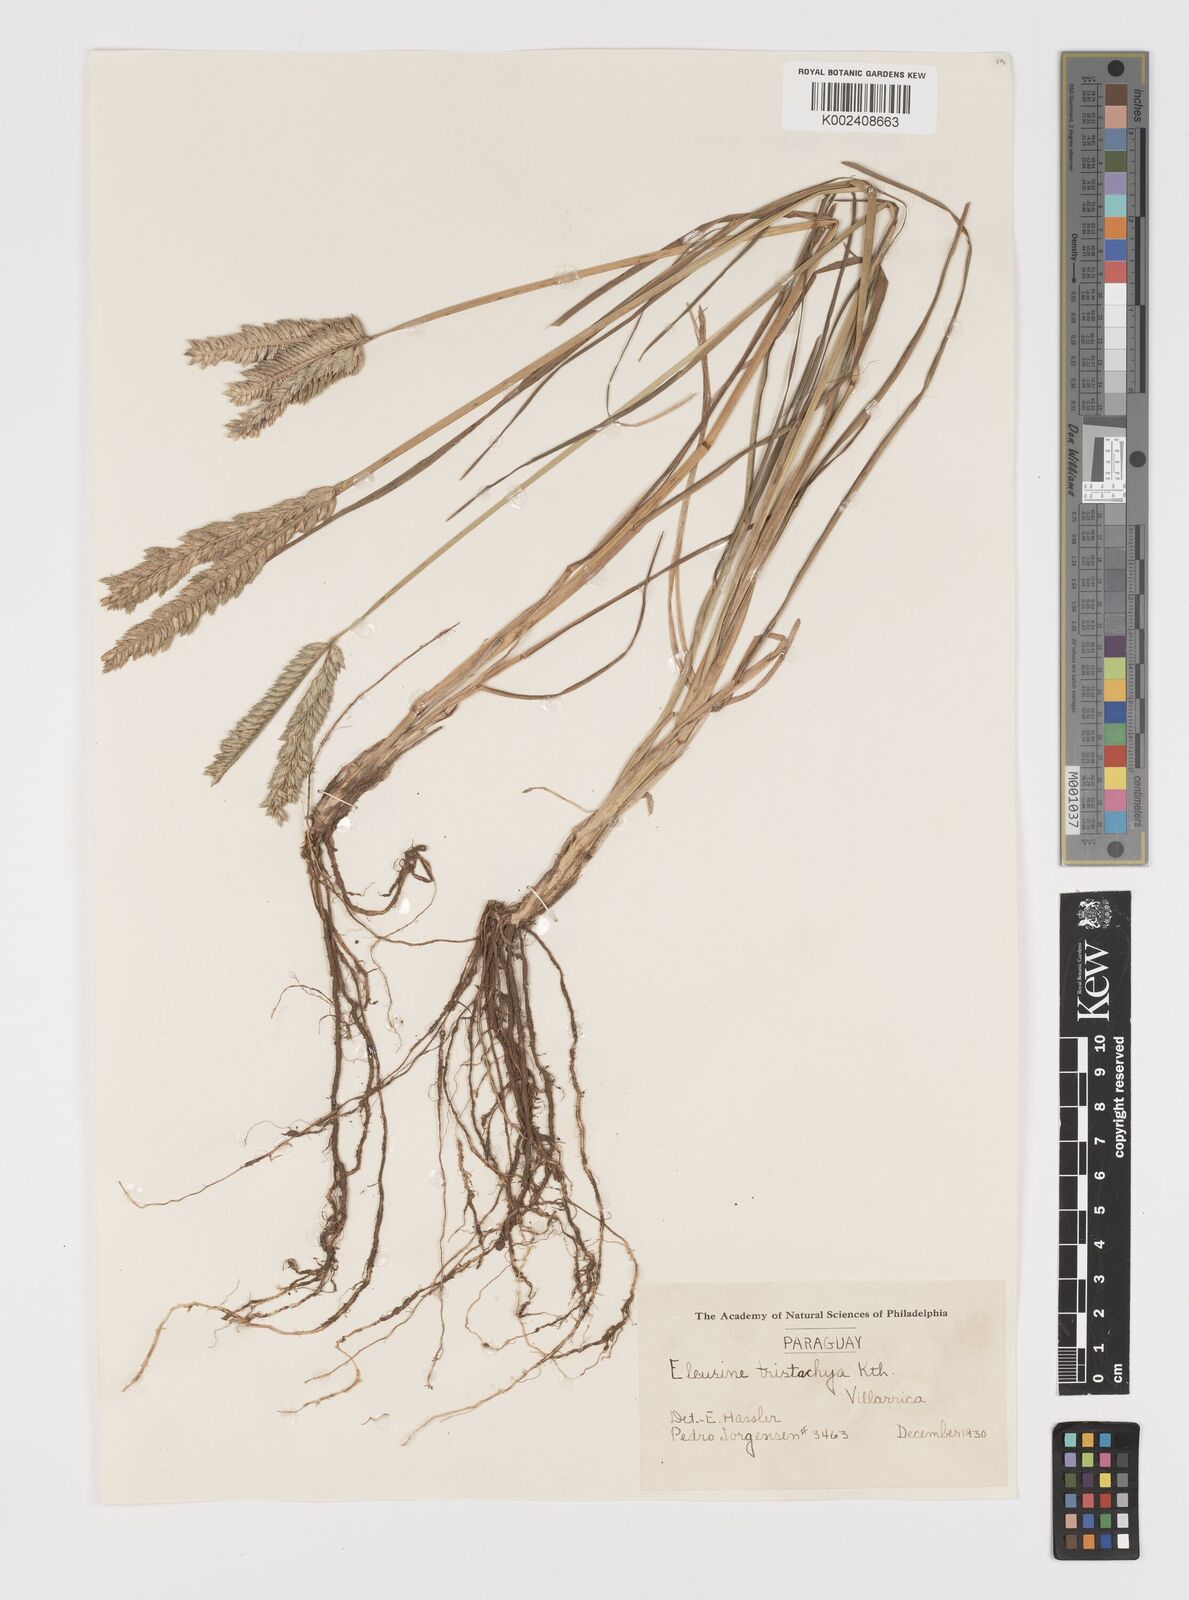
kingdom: Plantae
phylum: Tracheophyta
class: Liliopsida
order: Poales
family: Poaceae
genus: Eleusine
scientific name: Eleusine tristachya
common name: American yard-grass
